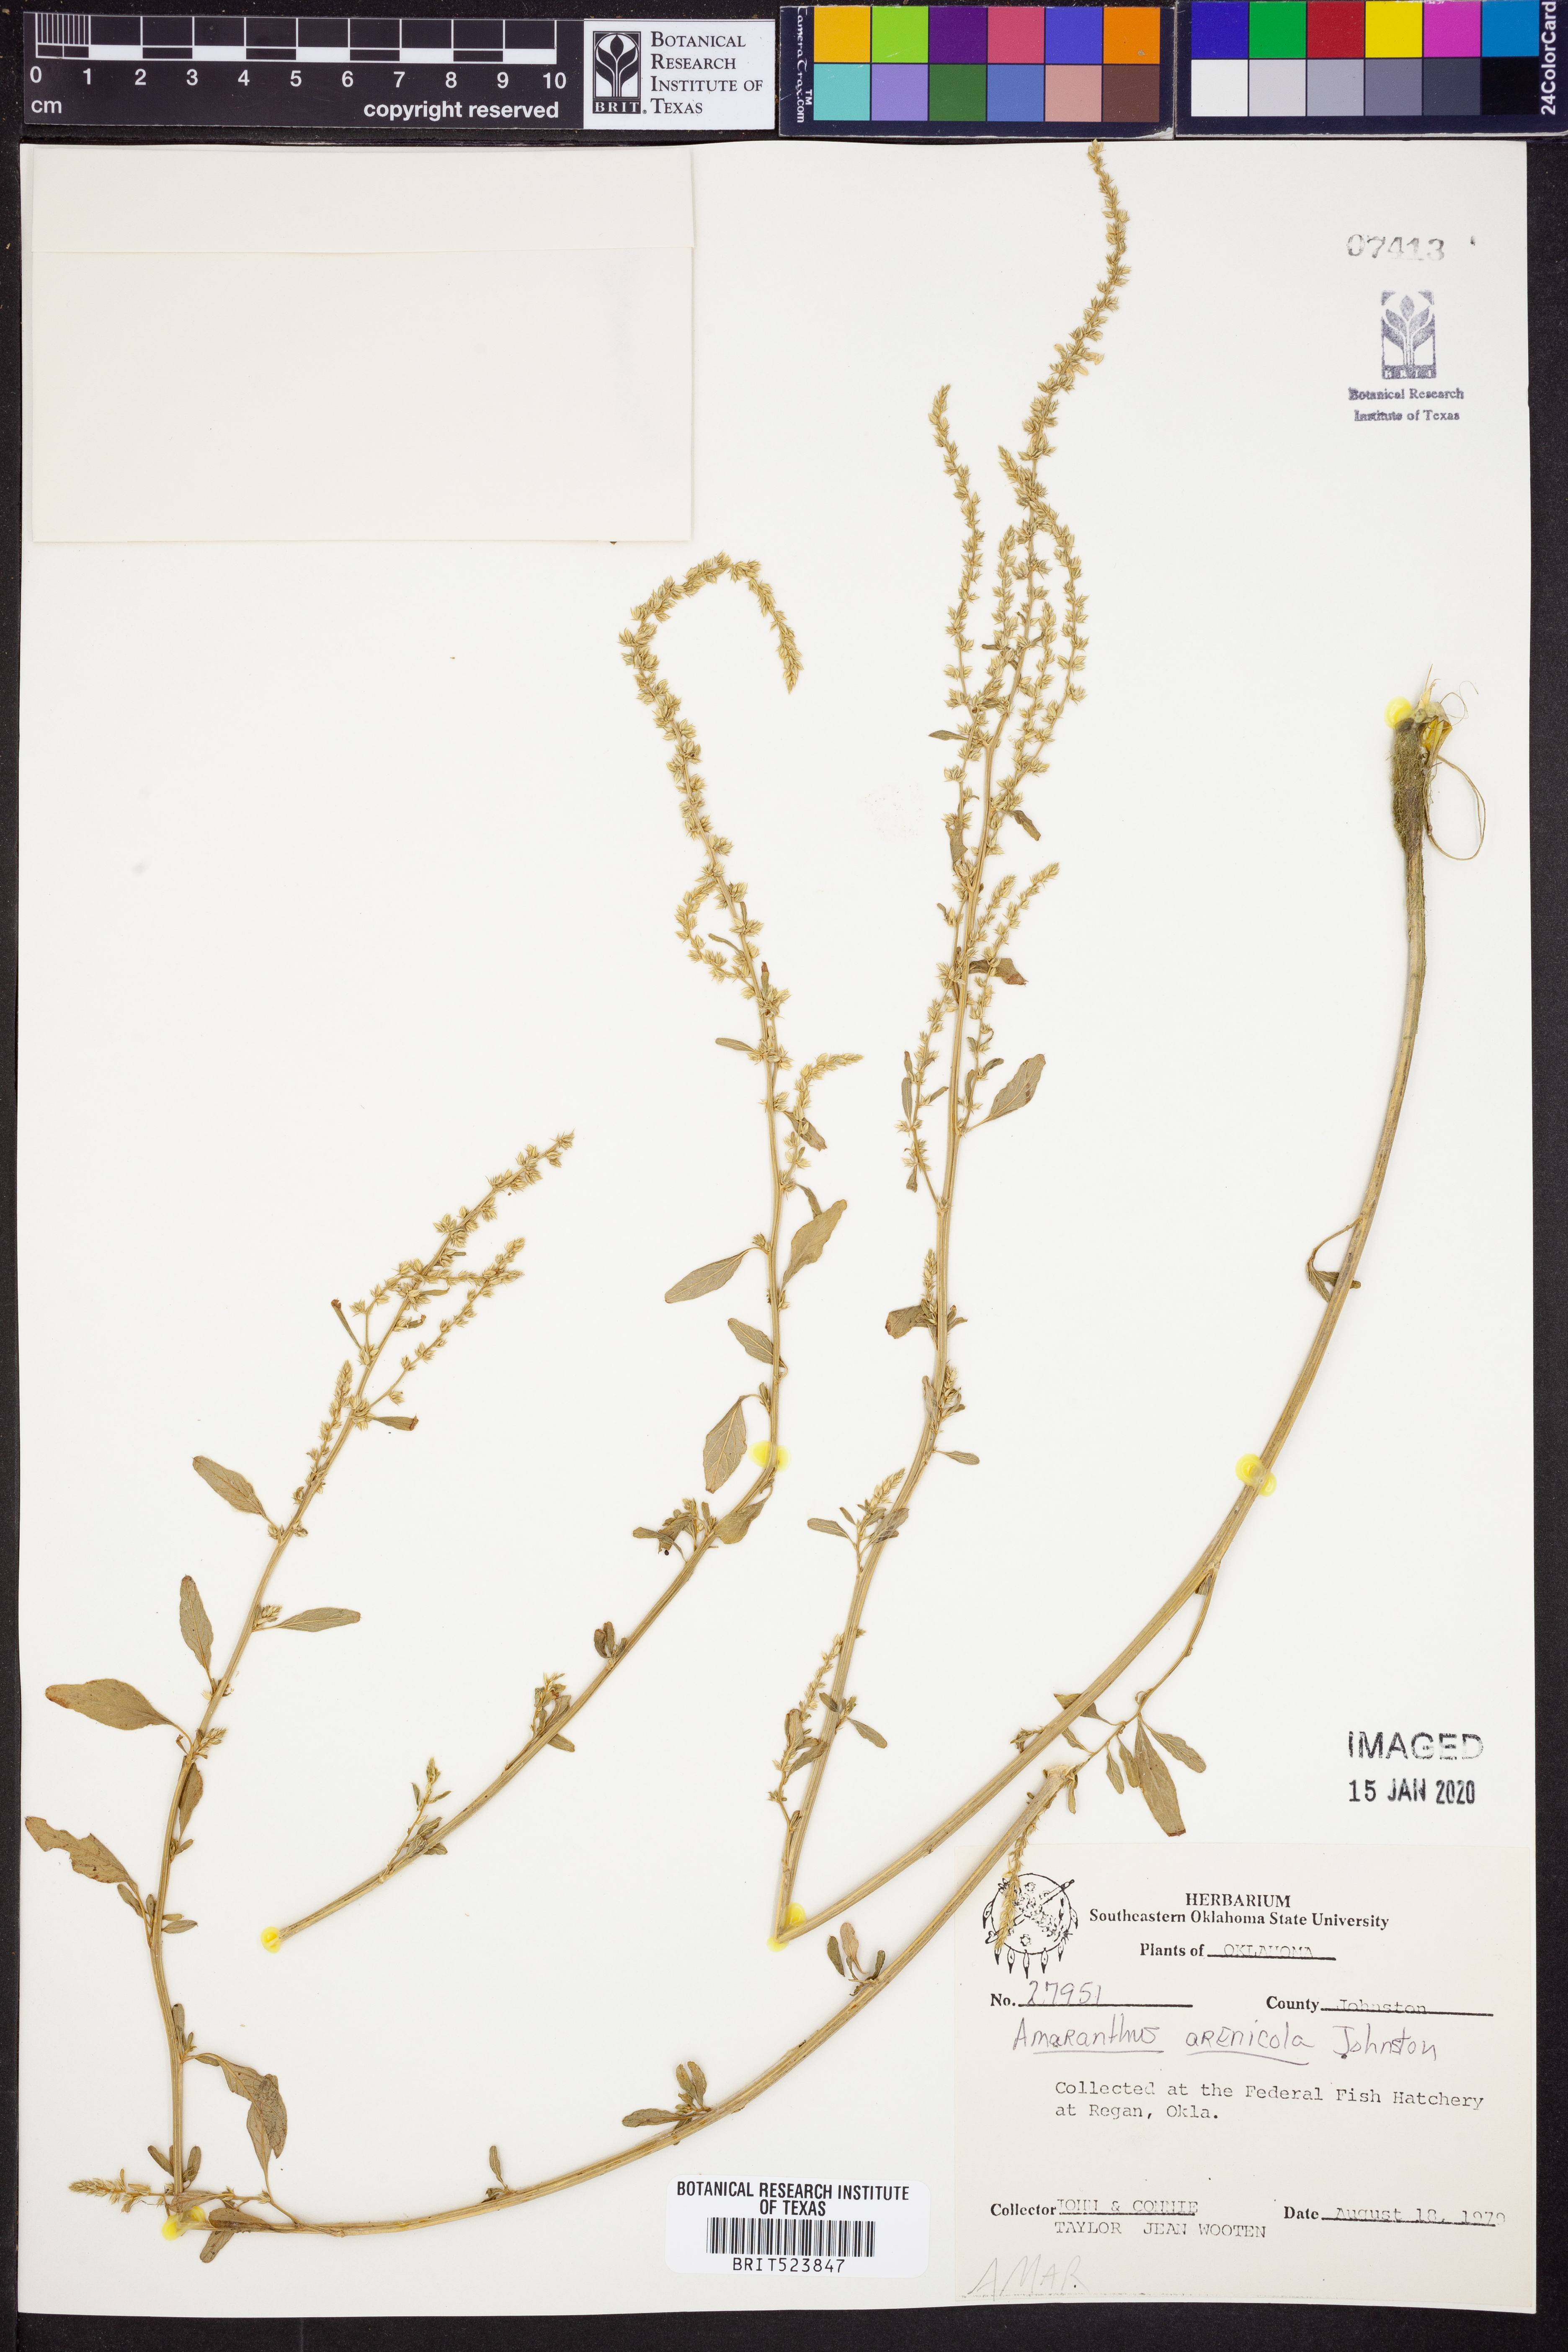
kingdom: Plantae
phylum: Tracheophyta
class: Magnoliopsida
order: Caryophyllales
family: Amaranthaceae
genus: Amaranthus
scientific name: Amaranthus arenicola
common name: Sandhills amaranth
